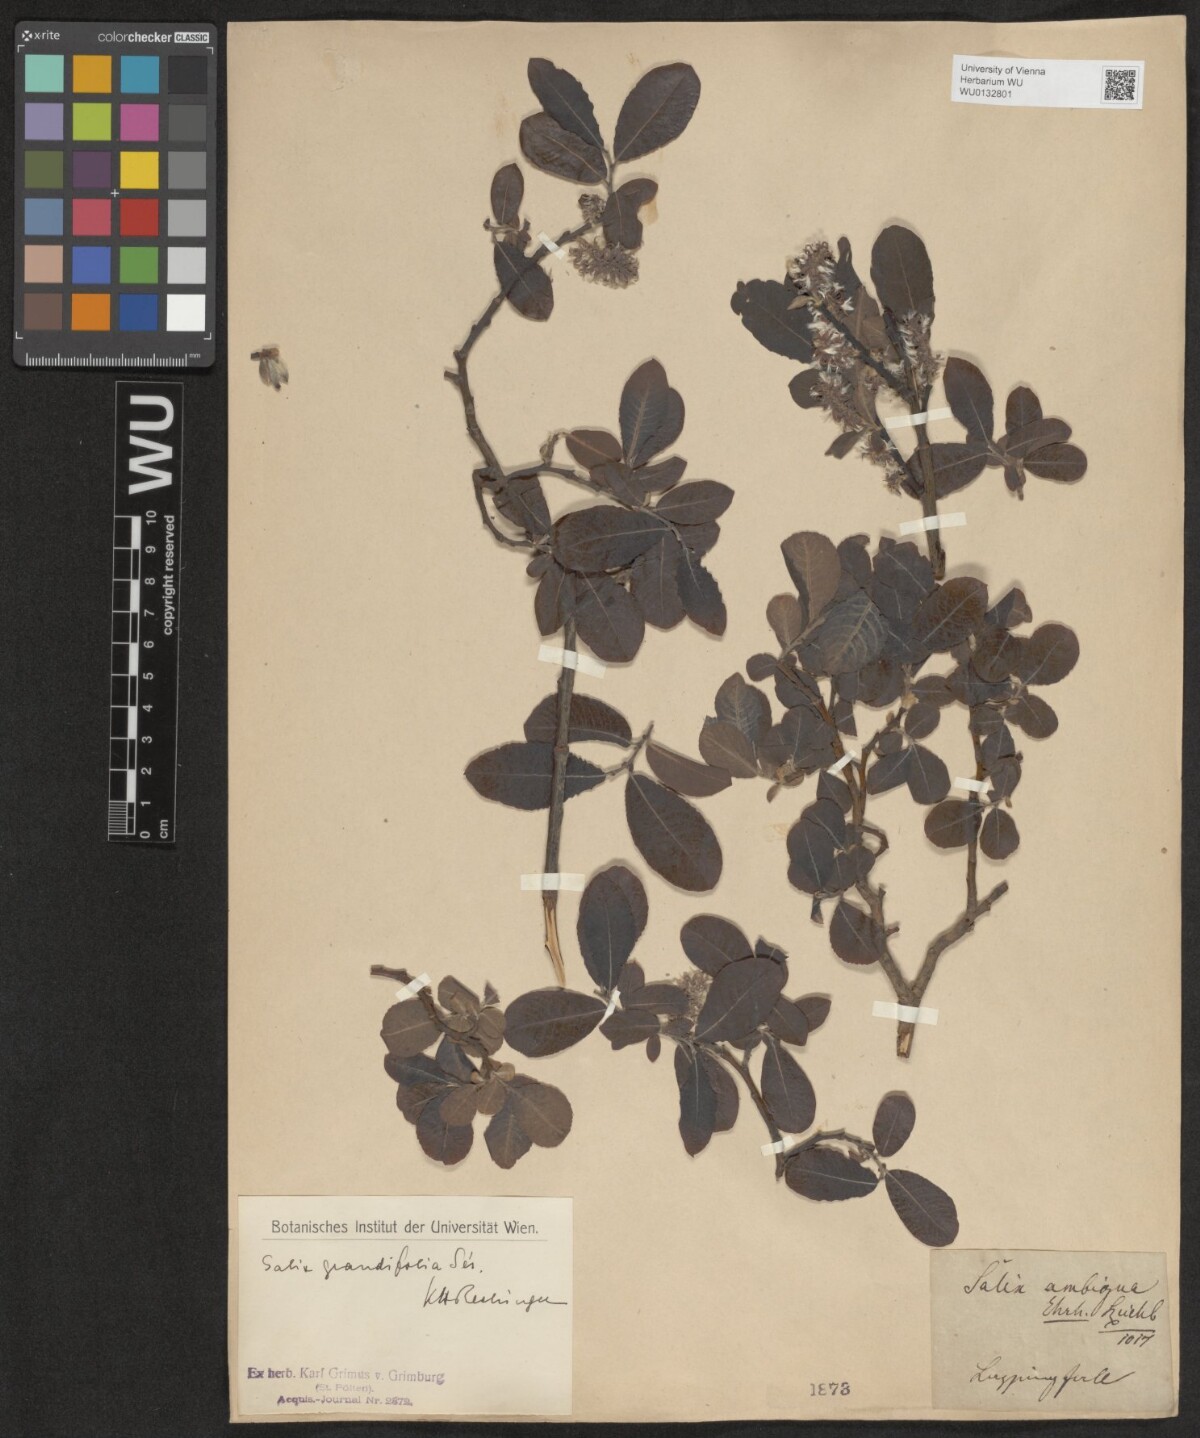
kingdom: Plantae
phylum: Tracheophyta
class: Magnoliopsida
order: Malpighiales
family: Salicaceae
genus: Salix
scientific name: Salix appendiculata
